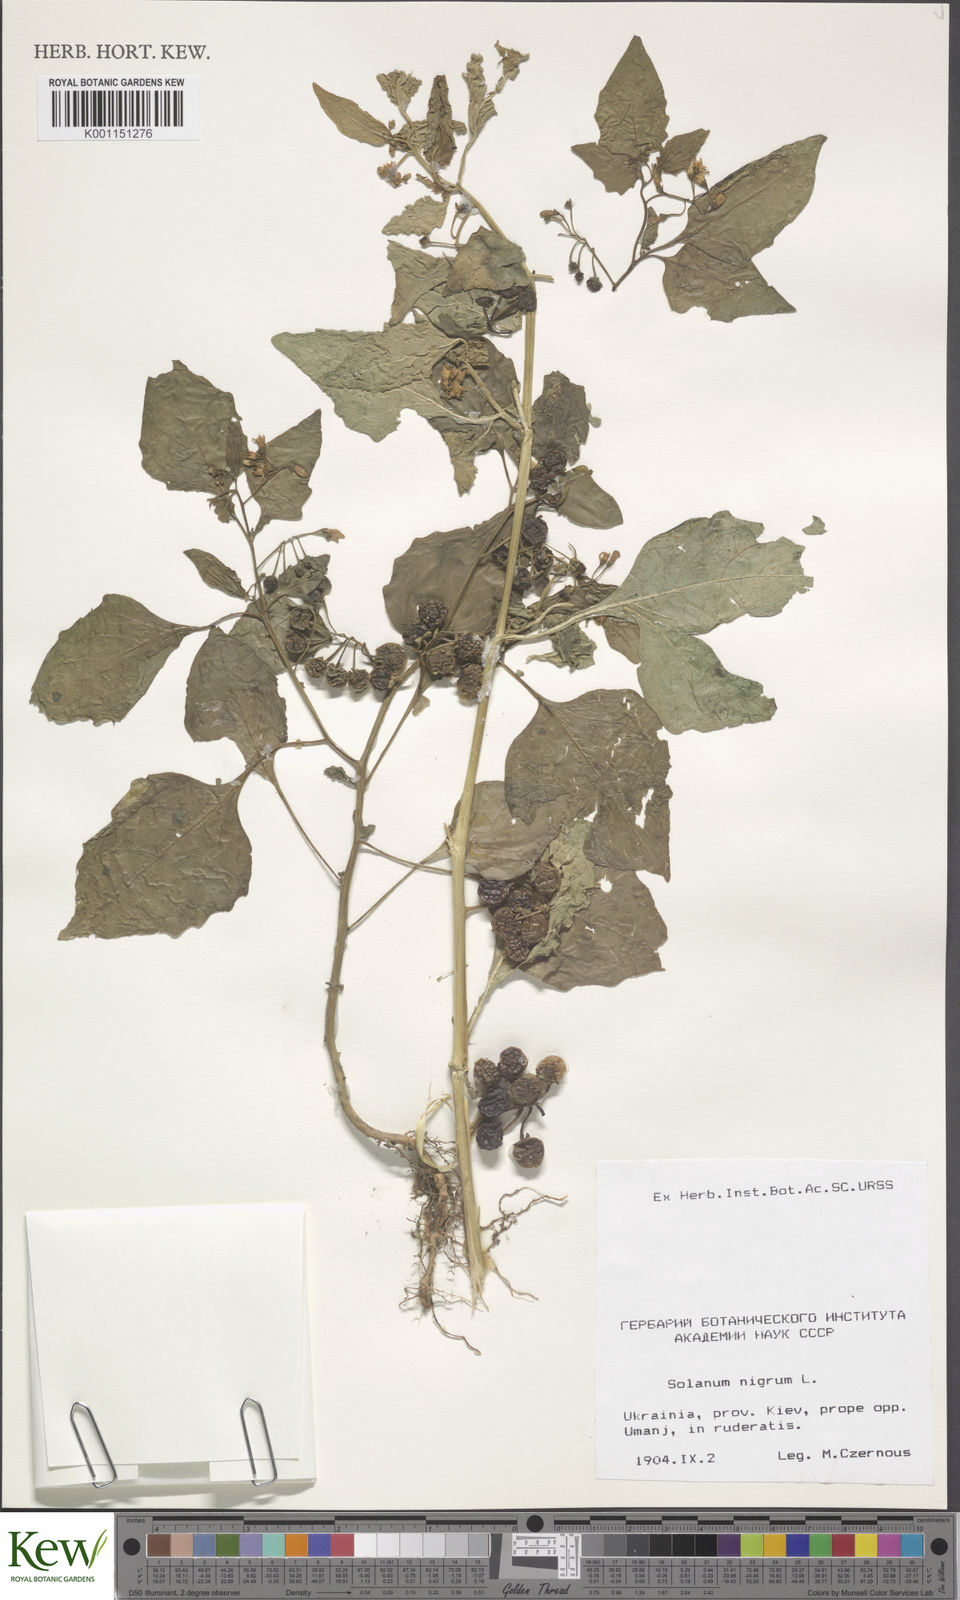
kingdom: Plantae
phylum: Tracheophyta
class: Magnoliopsida
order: Solanales
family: Solanaceae
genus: Solanum
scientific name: Solanum nigrum
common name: Black nightshade
